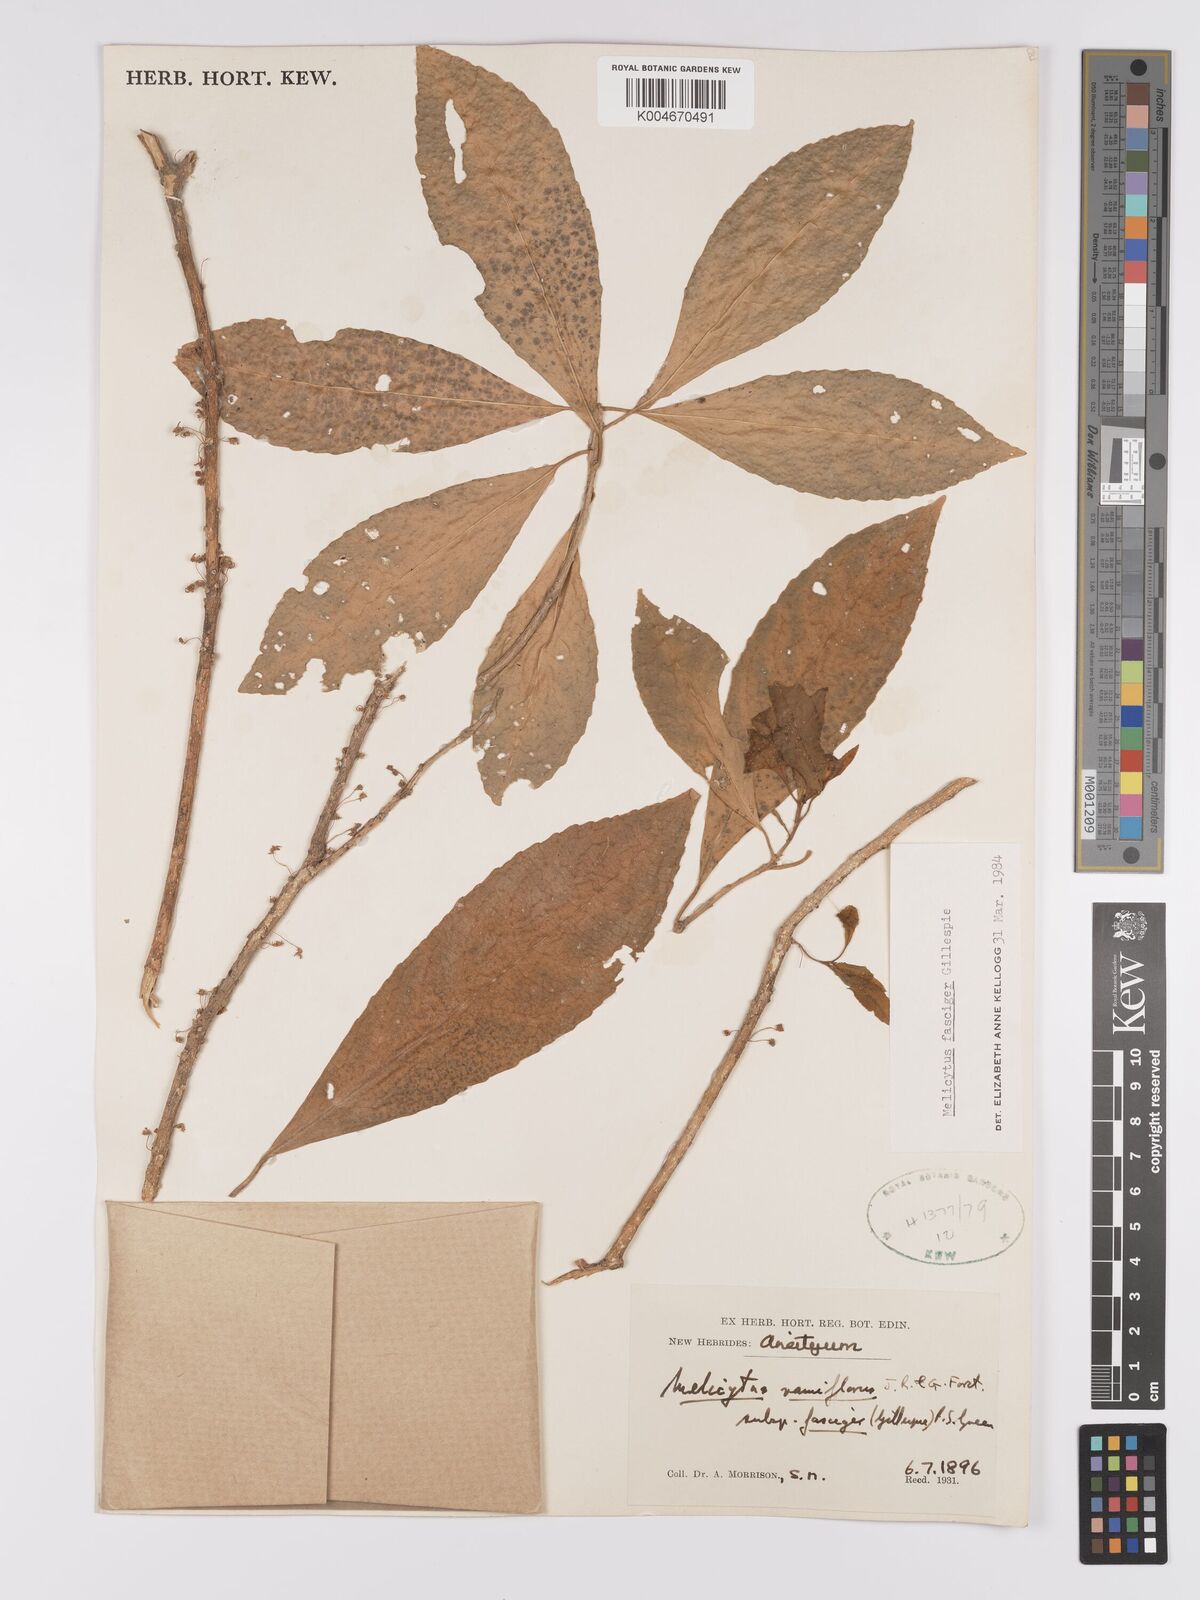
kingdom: Plantae
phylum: Tracheophyta
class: Magnoliopsida
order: Malpighiales
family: Violaceae
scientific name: Violaceae
